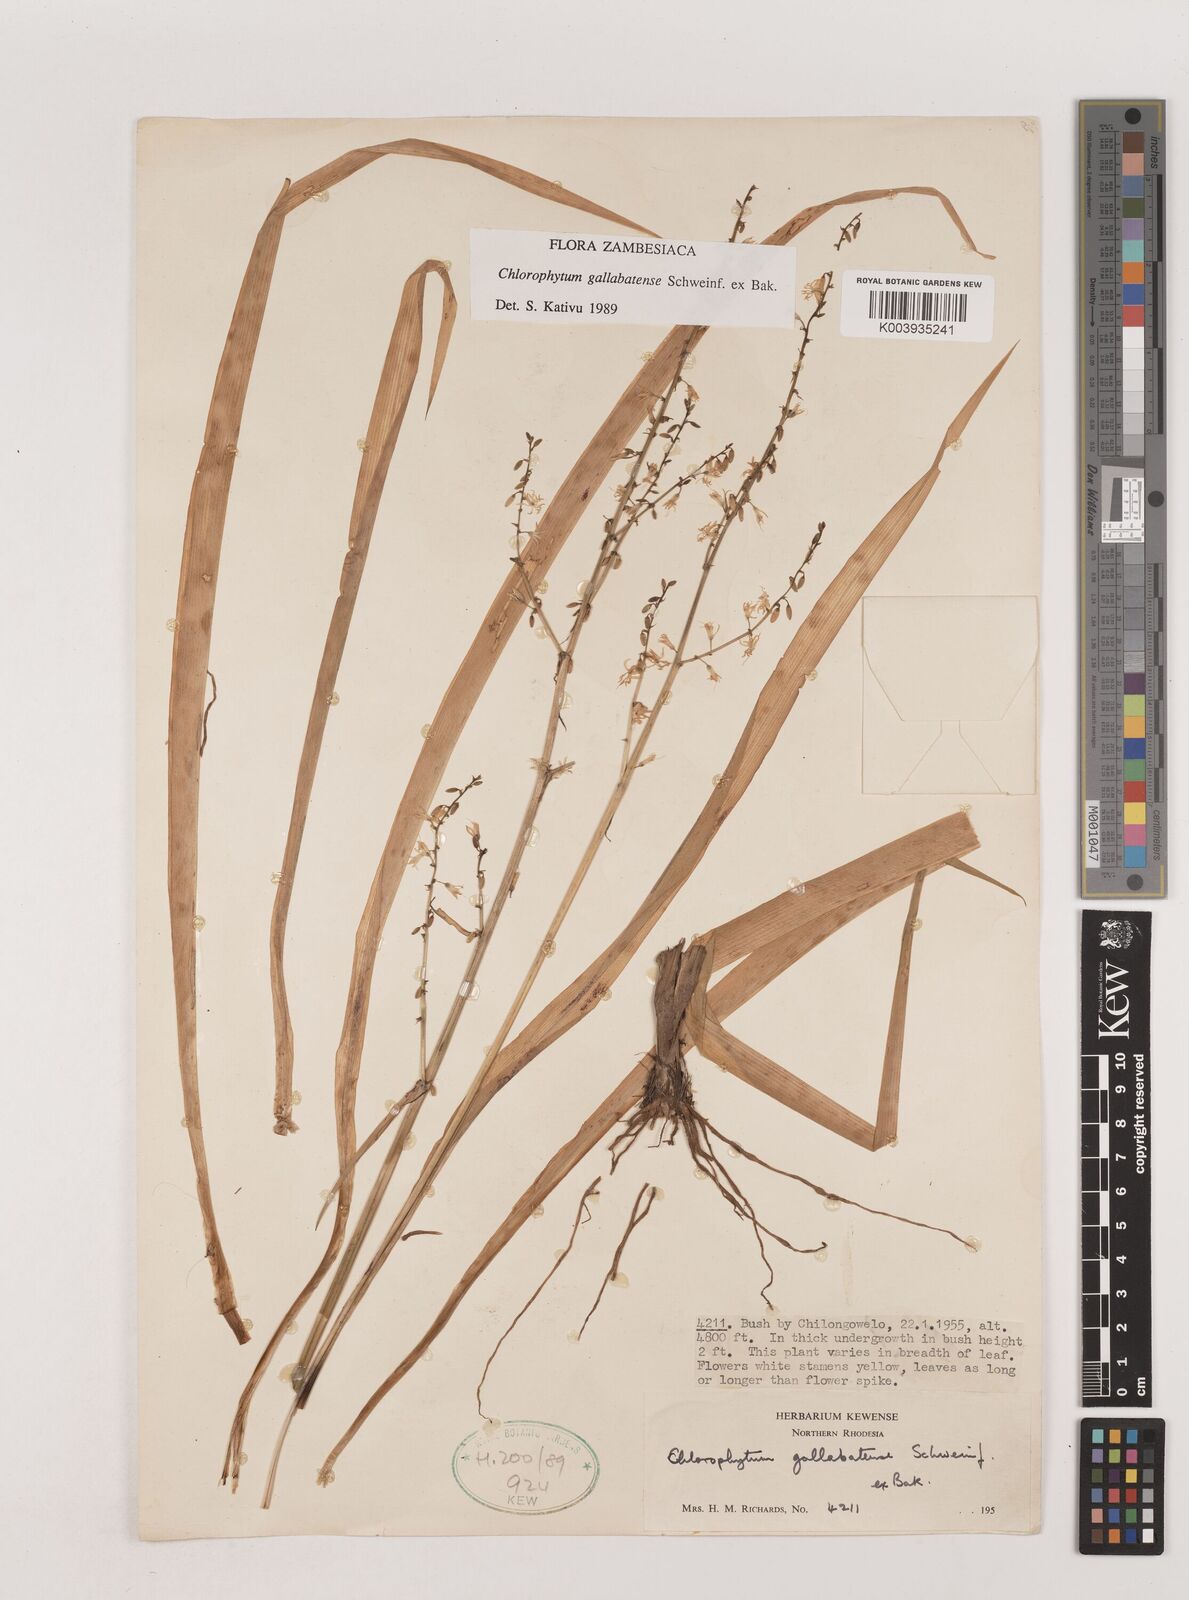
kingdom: Plantae
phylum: Tracheophyta
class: Liliopsida
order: Asparagales
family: Asparagaceae
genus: Chlorophytum
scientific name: Chlorophytum gallabatense
